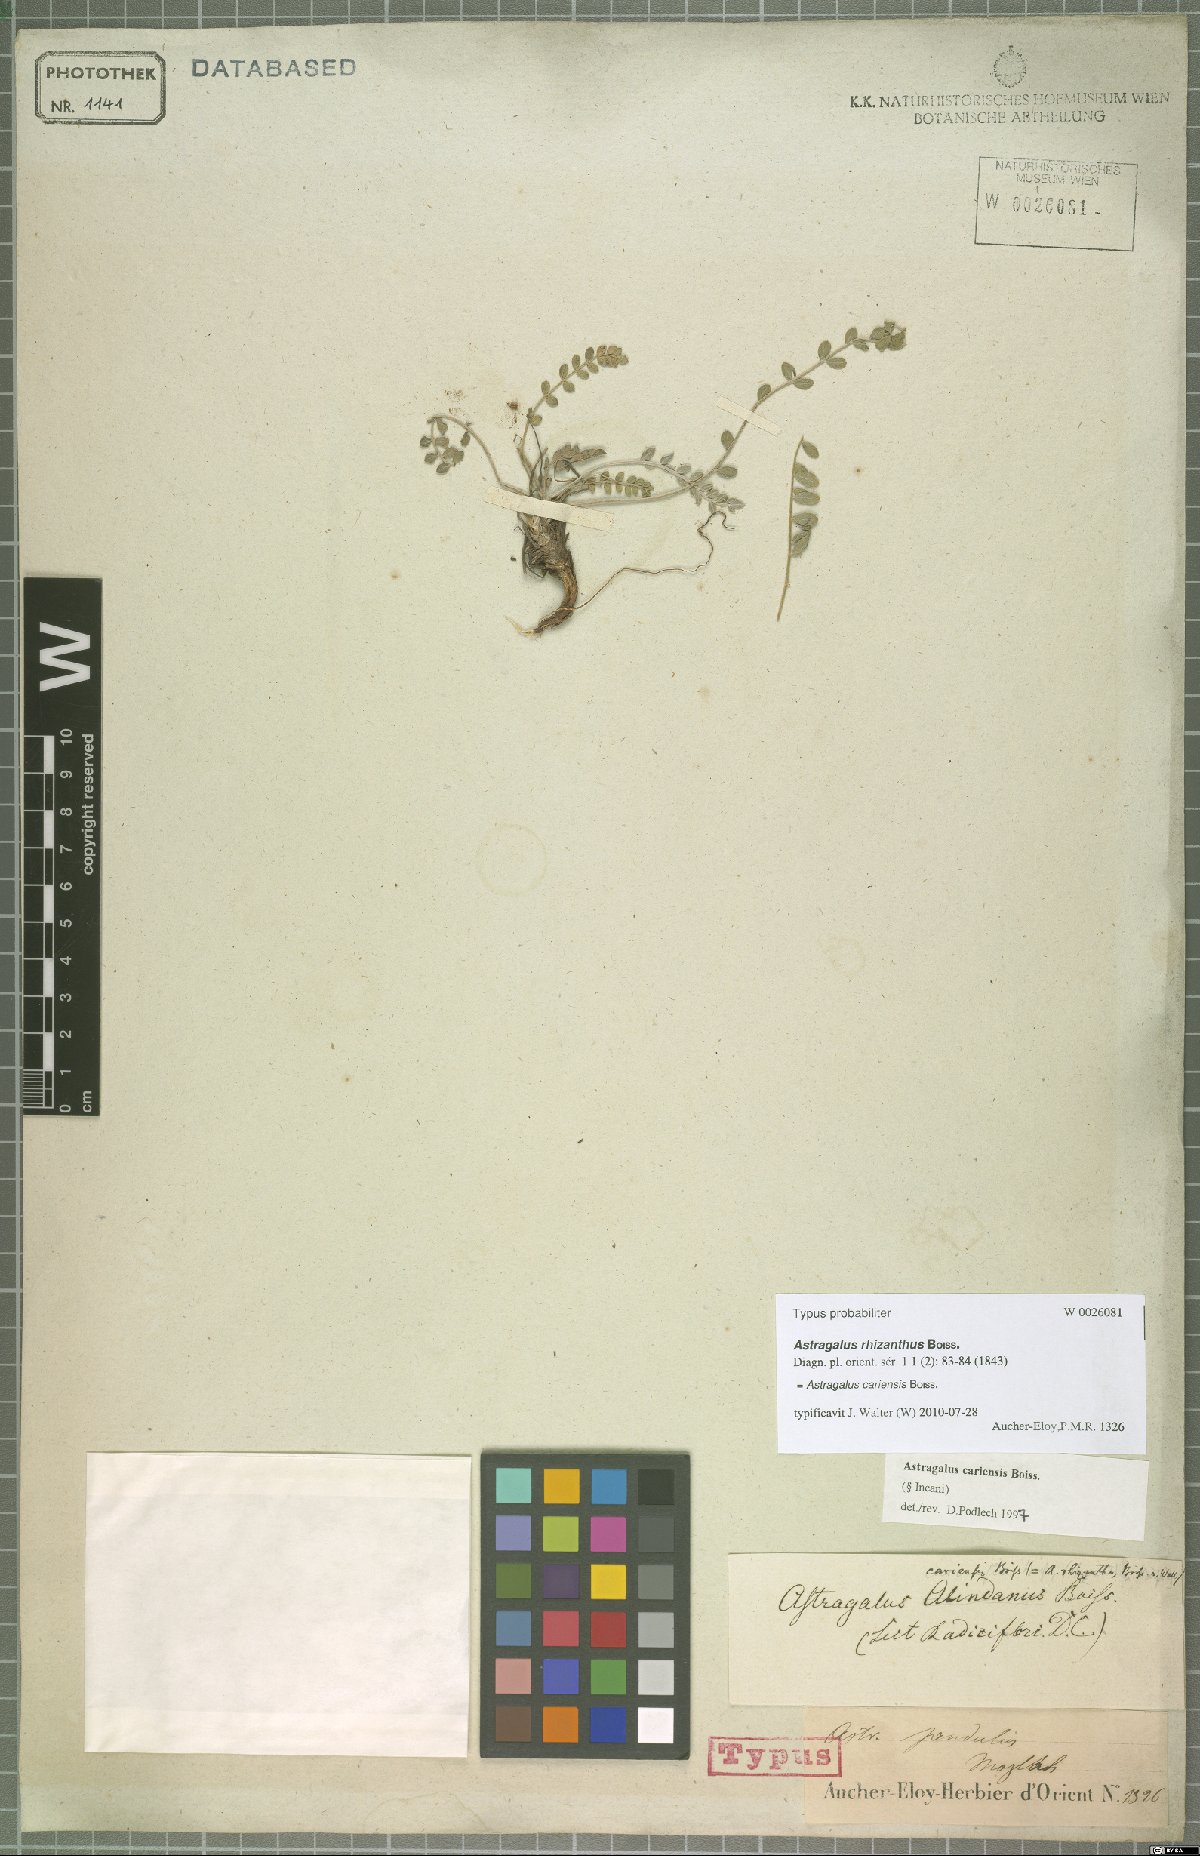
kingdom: Plantae
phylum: Tracheophyta
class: Magnoliopsida
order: Fabales
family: Fabaceae
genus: Astragalus
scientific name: Astragalus cariensis
